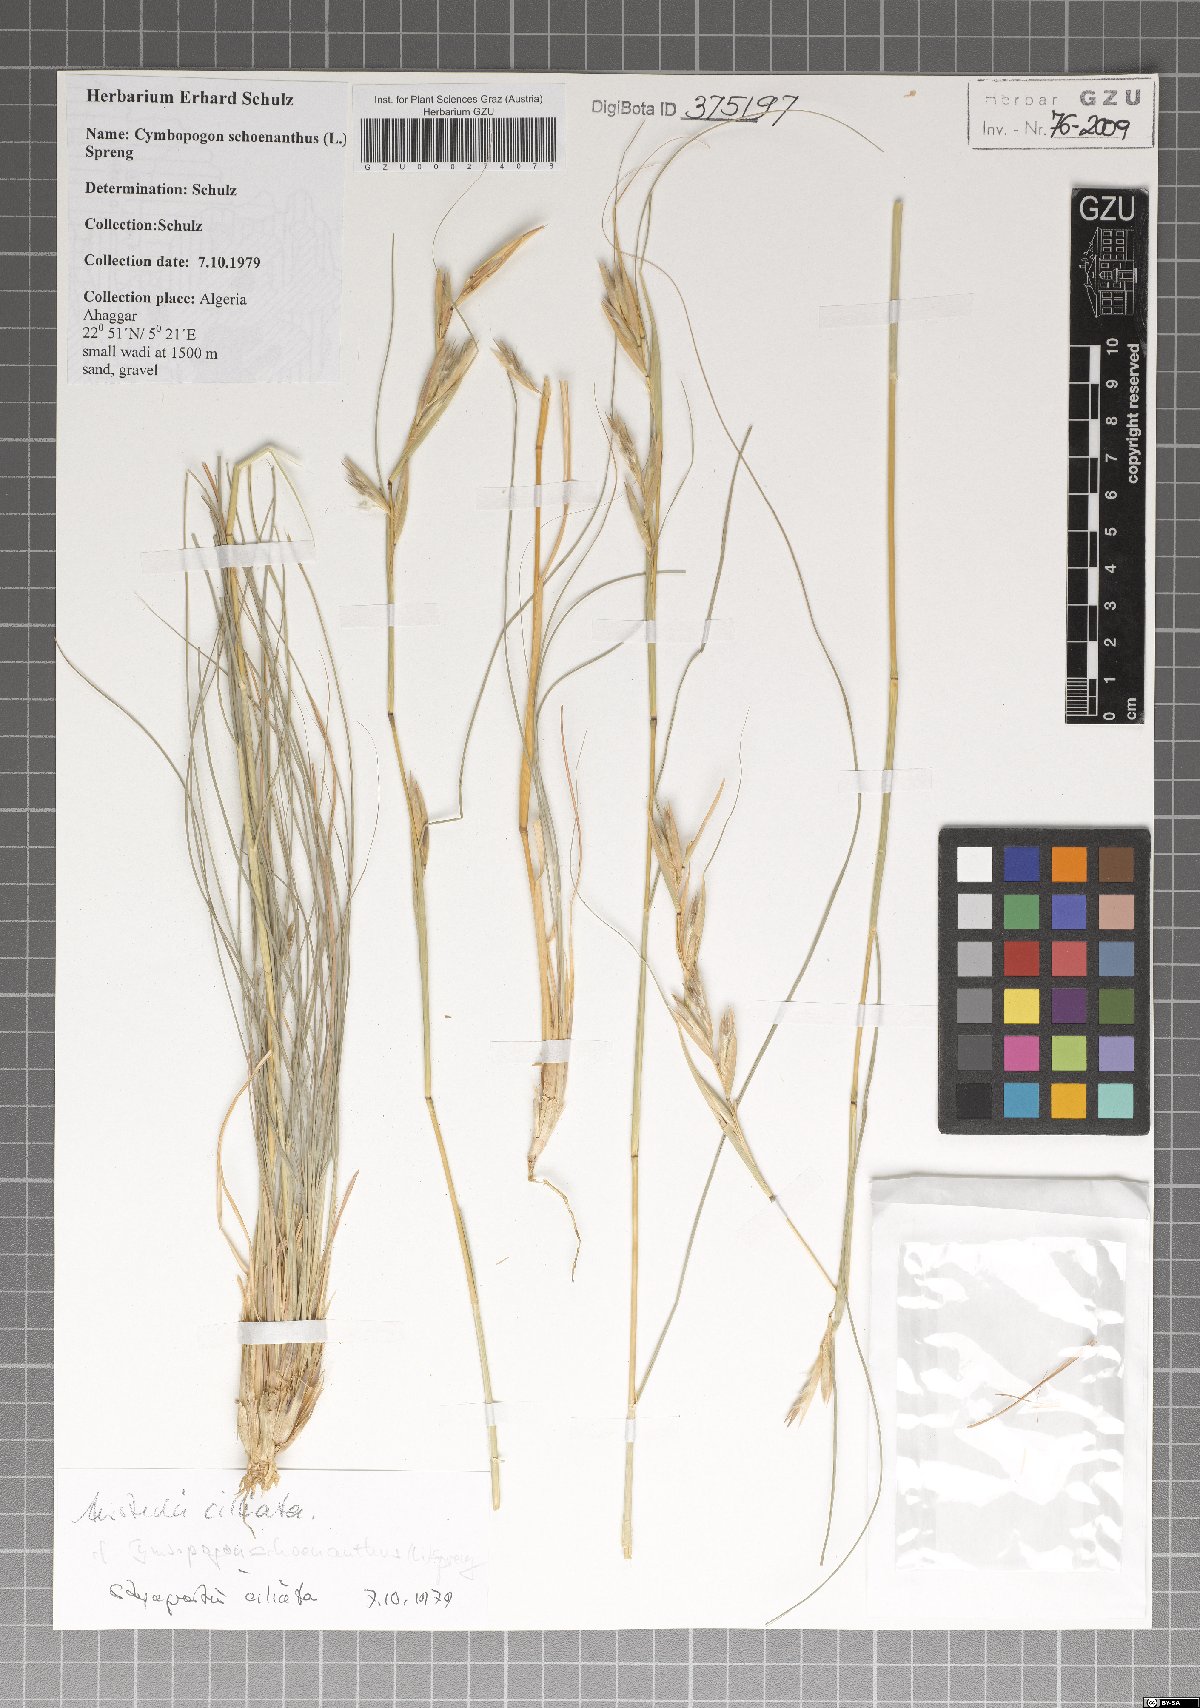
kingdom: Plantae
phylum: Tracheophyta
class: Liliopsida
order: Poales
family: Poaceae
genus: Cymbopogon
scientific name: Cymbopogon schoenanthus
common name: Geranium grass
